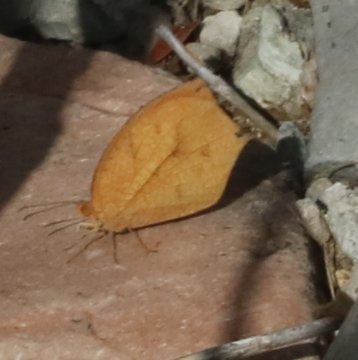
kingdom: Animalia
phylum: Arthropoda
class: Insecta
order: Lepidoptera
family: Pieridae
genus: Pyrisitia
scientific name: Pyrisitia proterpia
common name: Tailed Orange
